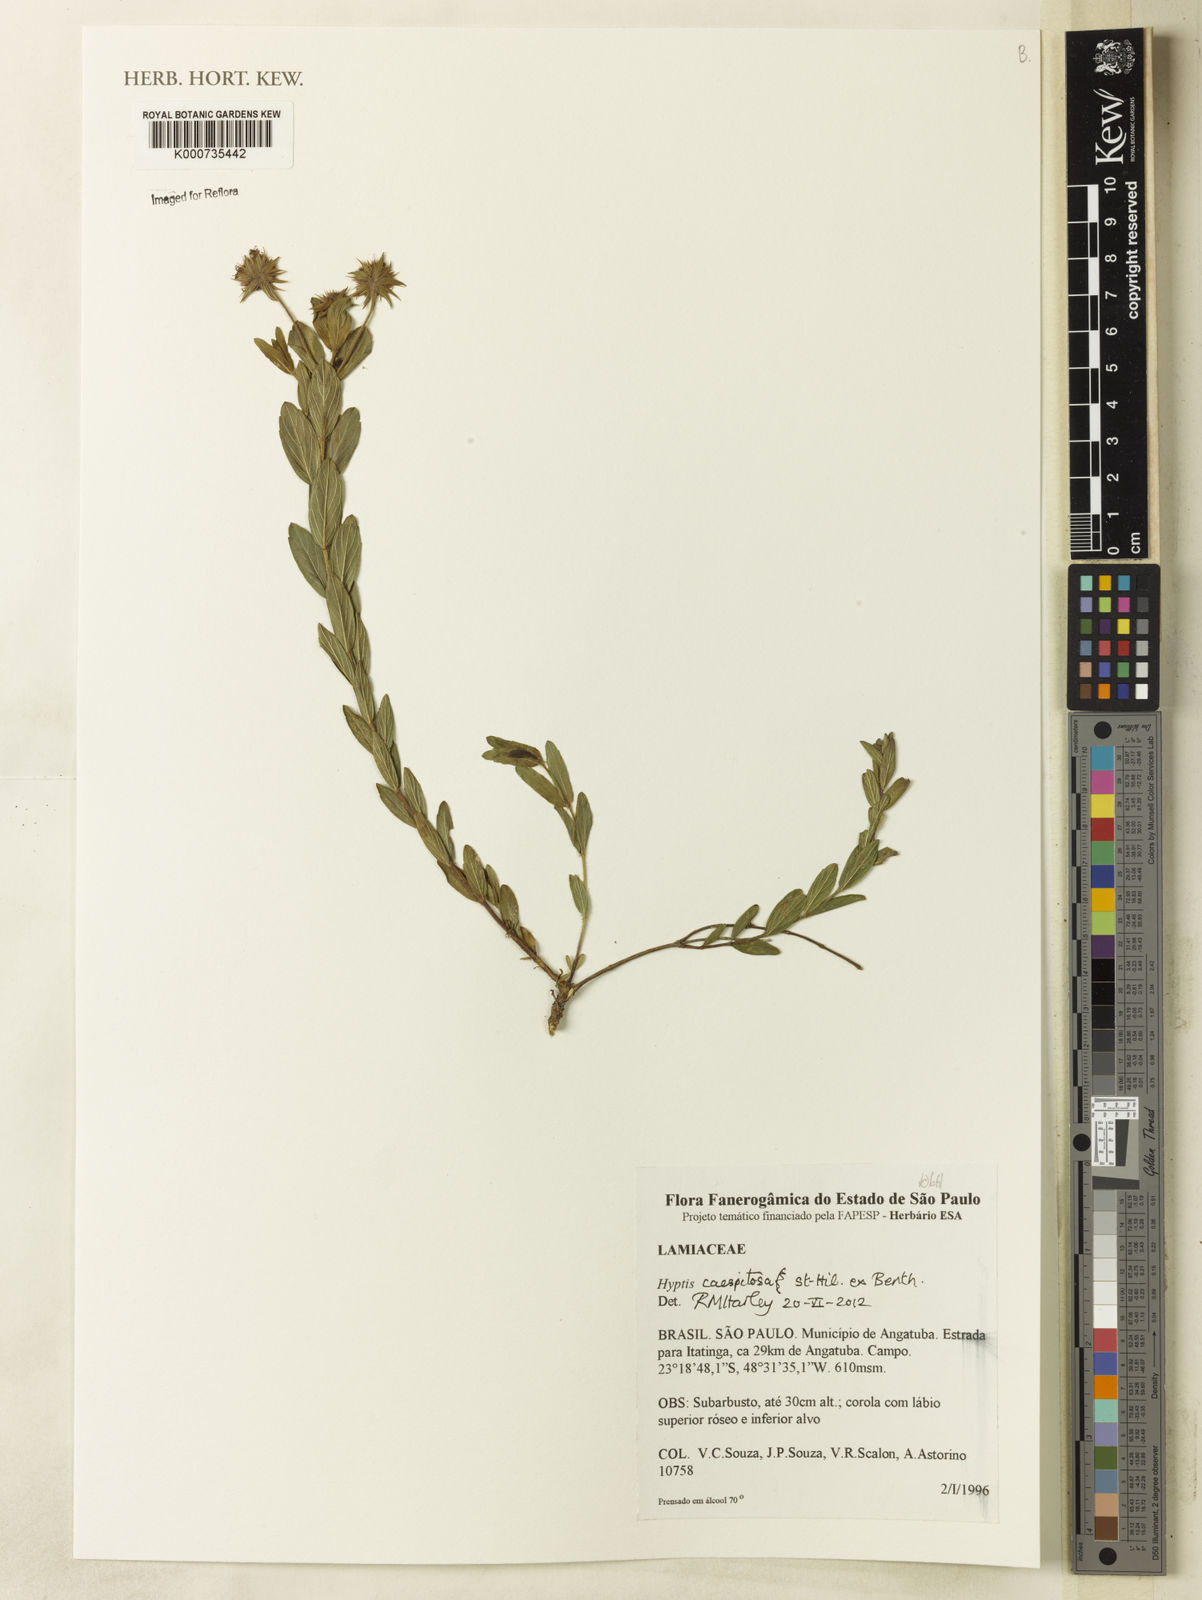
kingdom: Plantae
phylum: Tracheophyta
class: Magnoliopsida
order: Lamiales
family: Lamiaceae
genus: Hyptis
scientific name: Hyptis caespitosa
